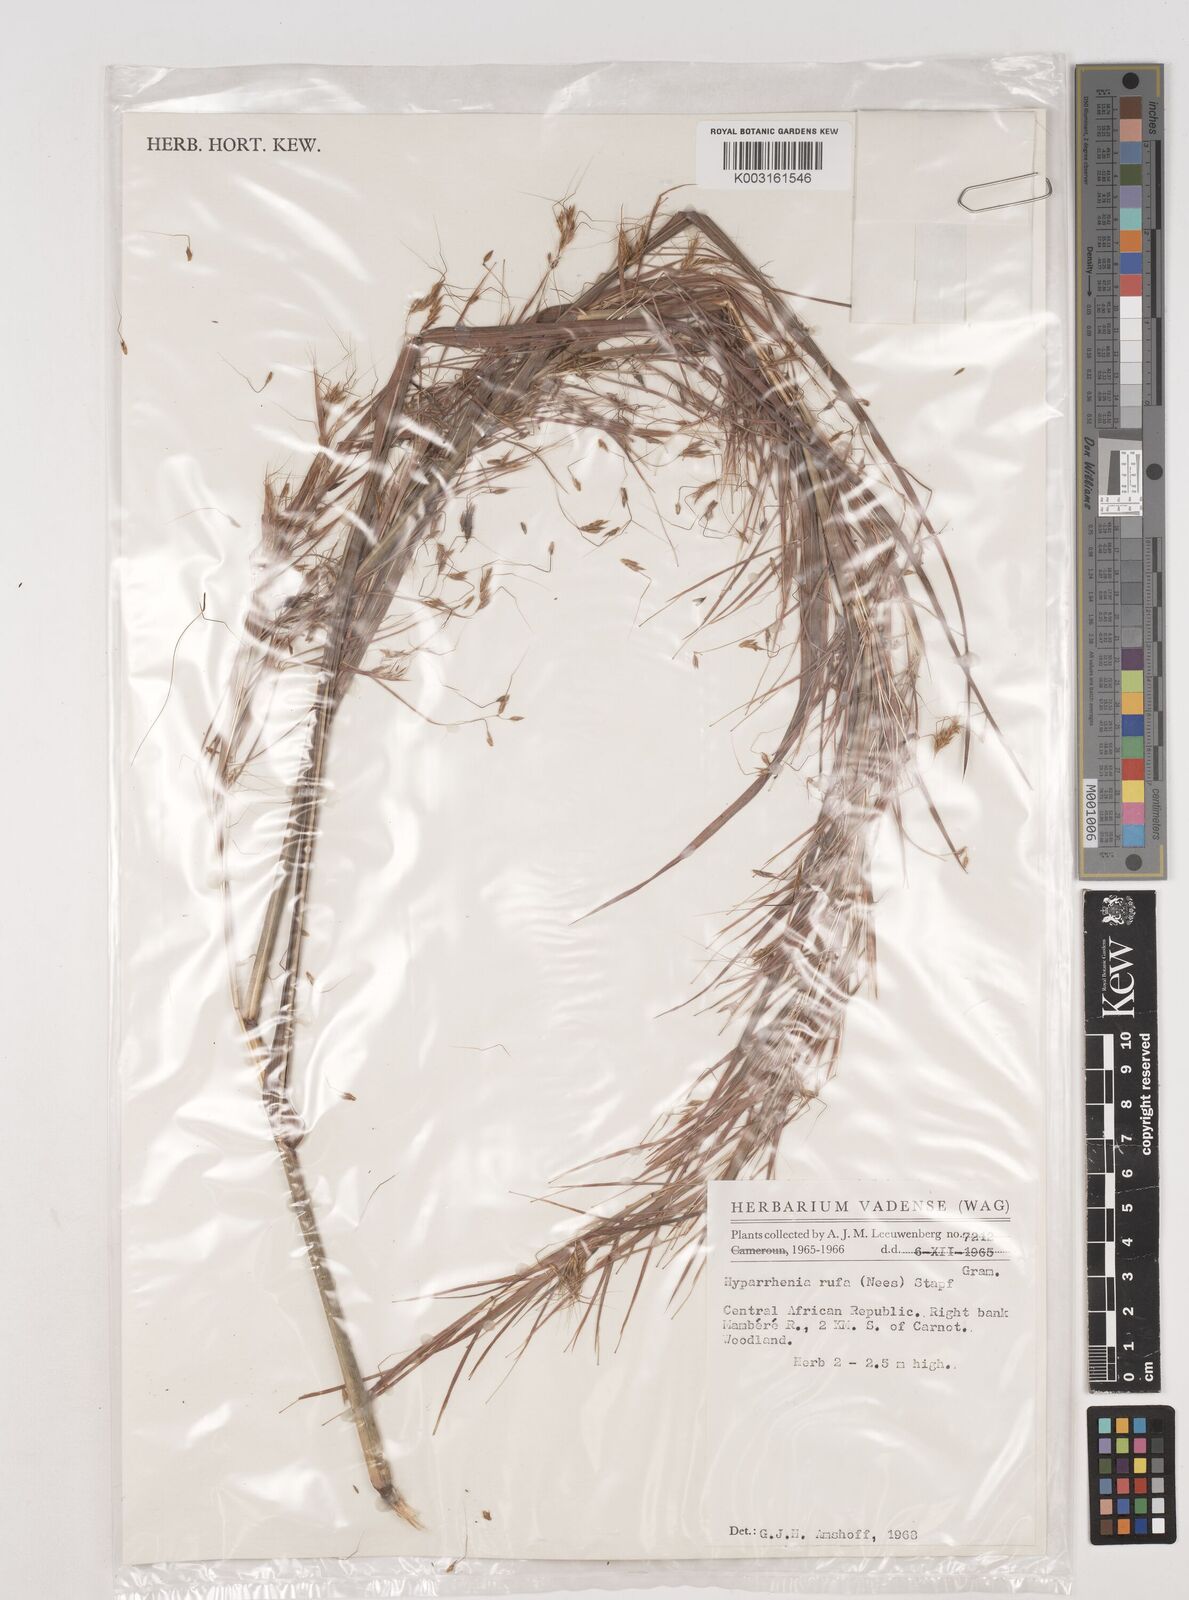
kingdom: Plantae
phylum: Tracheophyta
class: Liliopsida
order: Poales
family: Poaceae
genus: Hyparrhenia
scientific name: Hyparrhenia rufa
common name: Jaraguagrass
